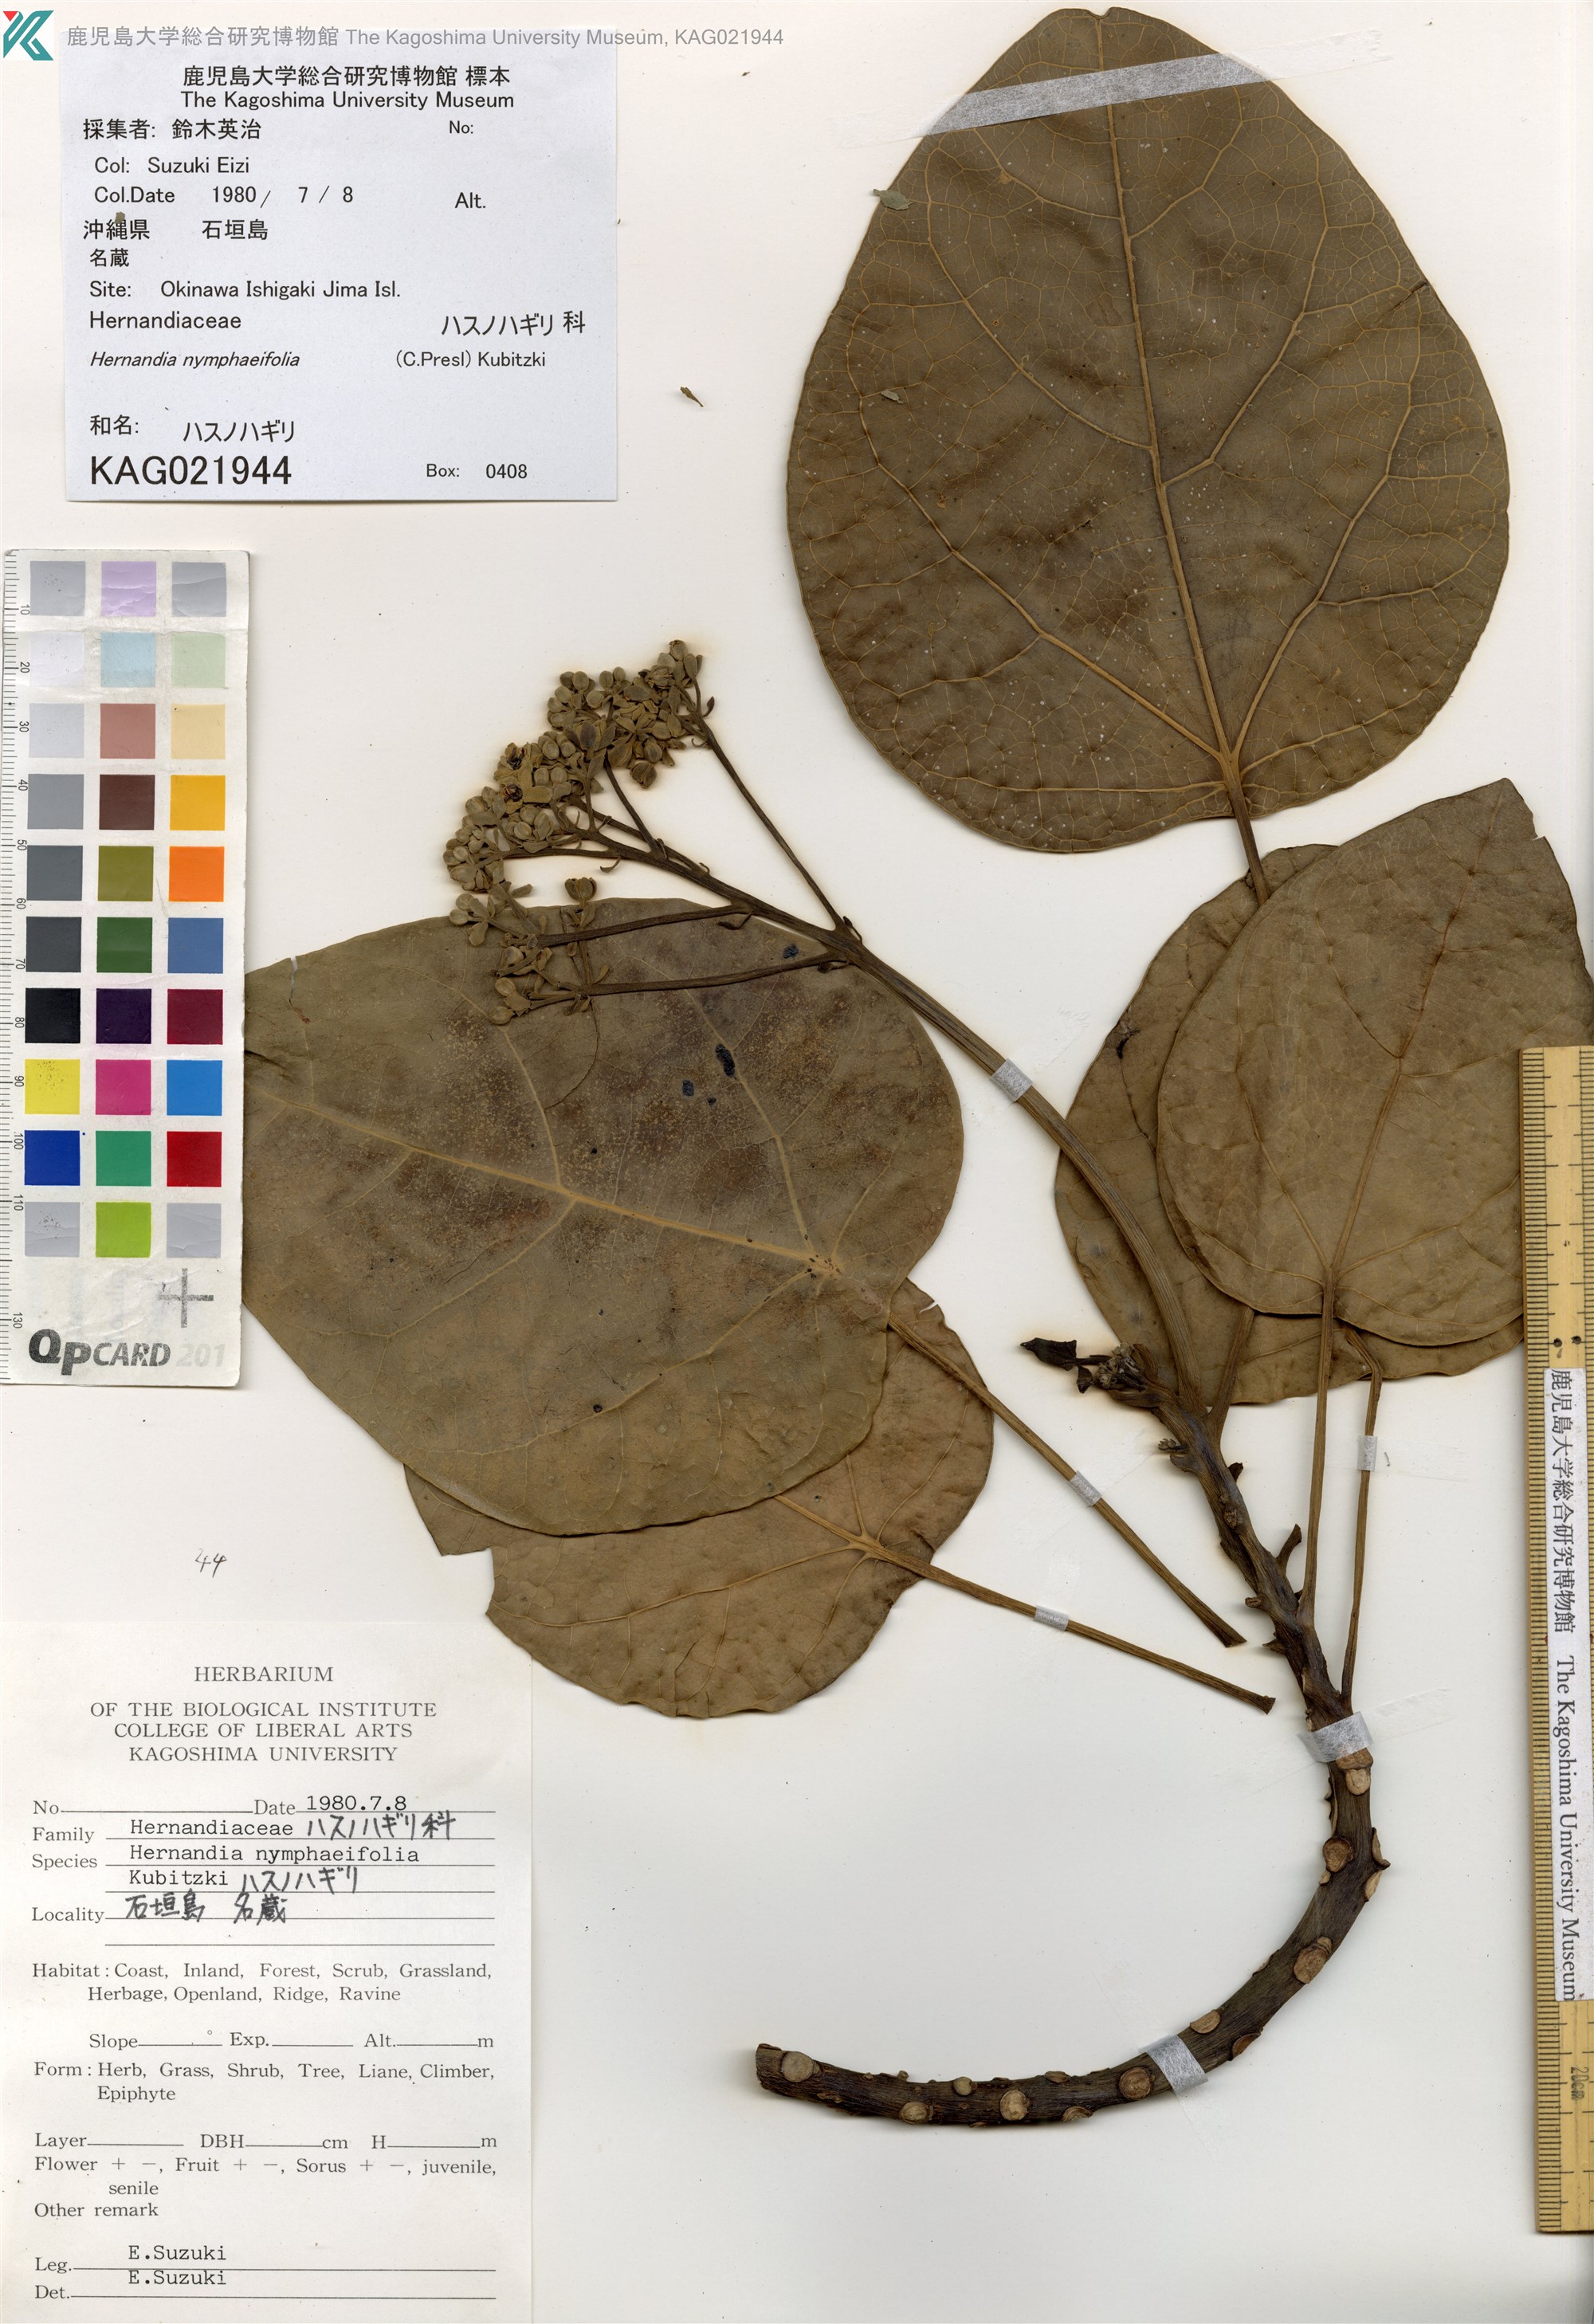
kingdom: Plantae
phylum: Tracheophyta
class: Magnoliopsida
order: Laurales
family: Hernandiaceae
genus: Hernandia
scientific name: Hernandia nymphaeifolia
